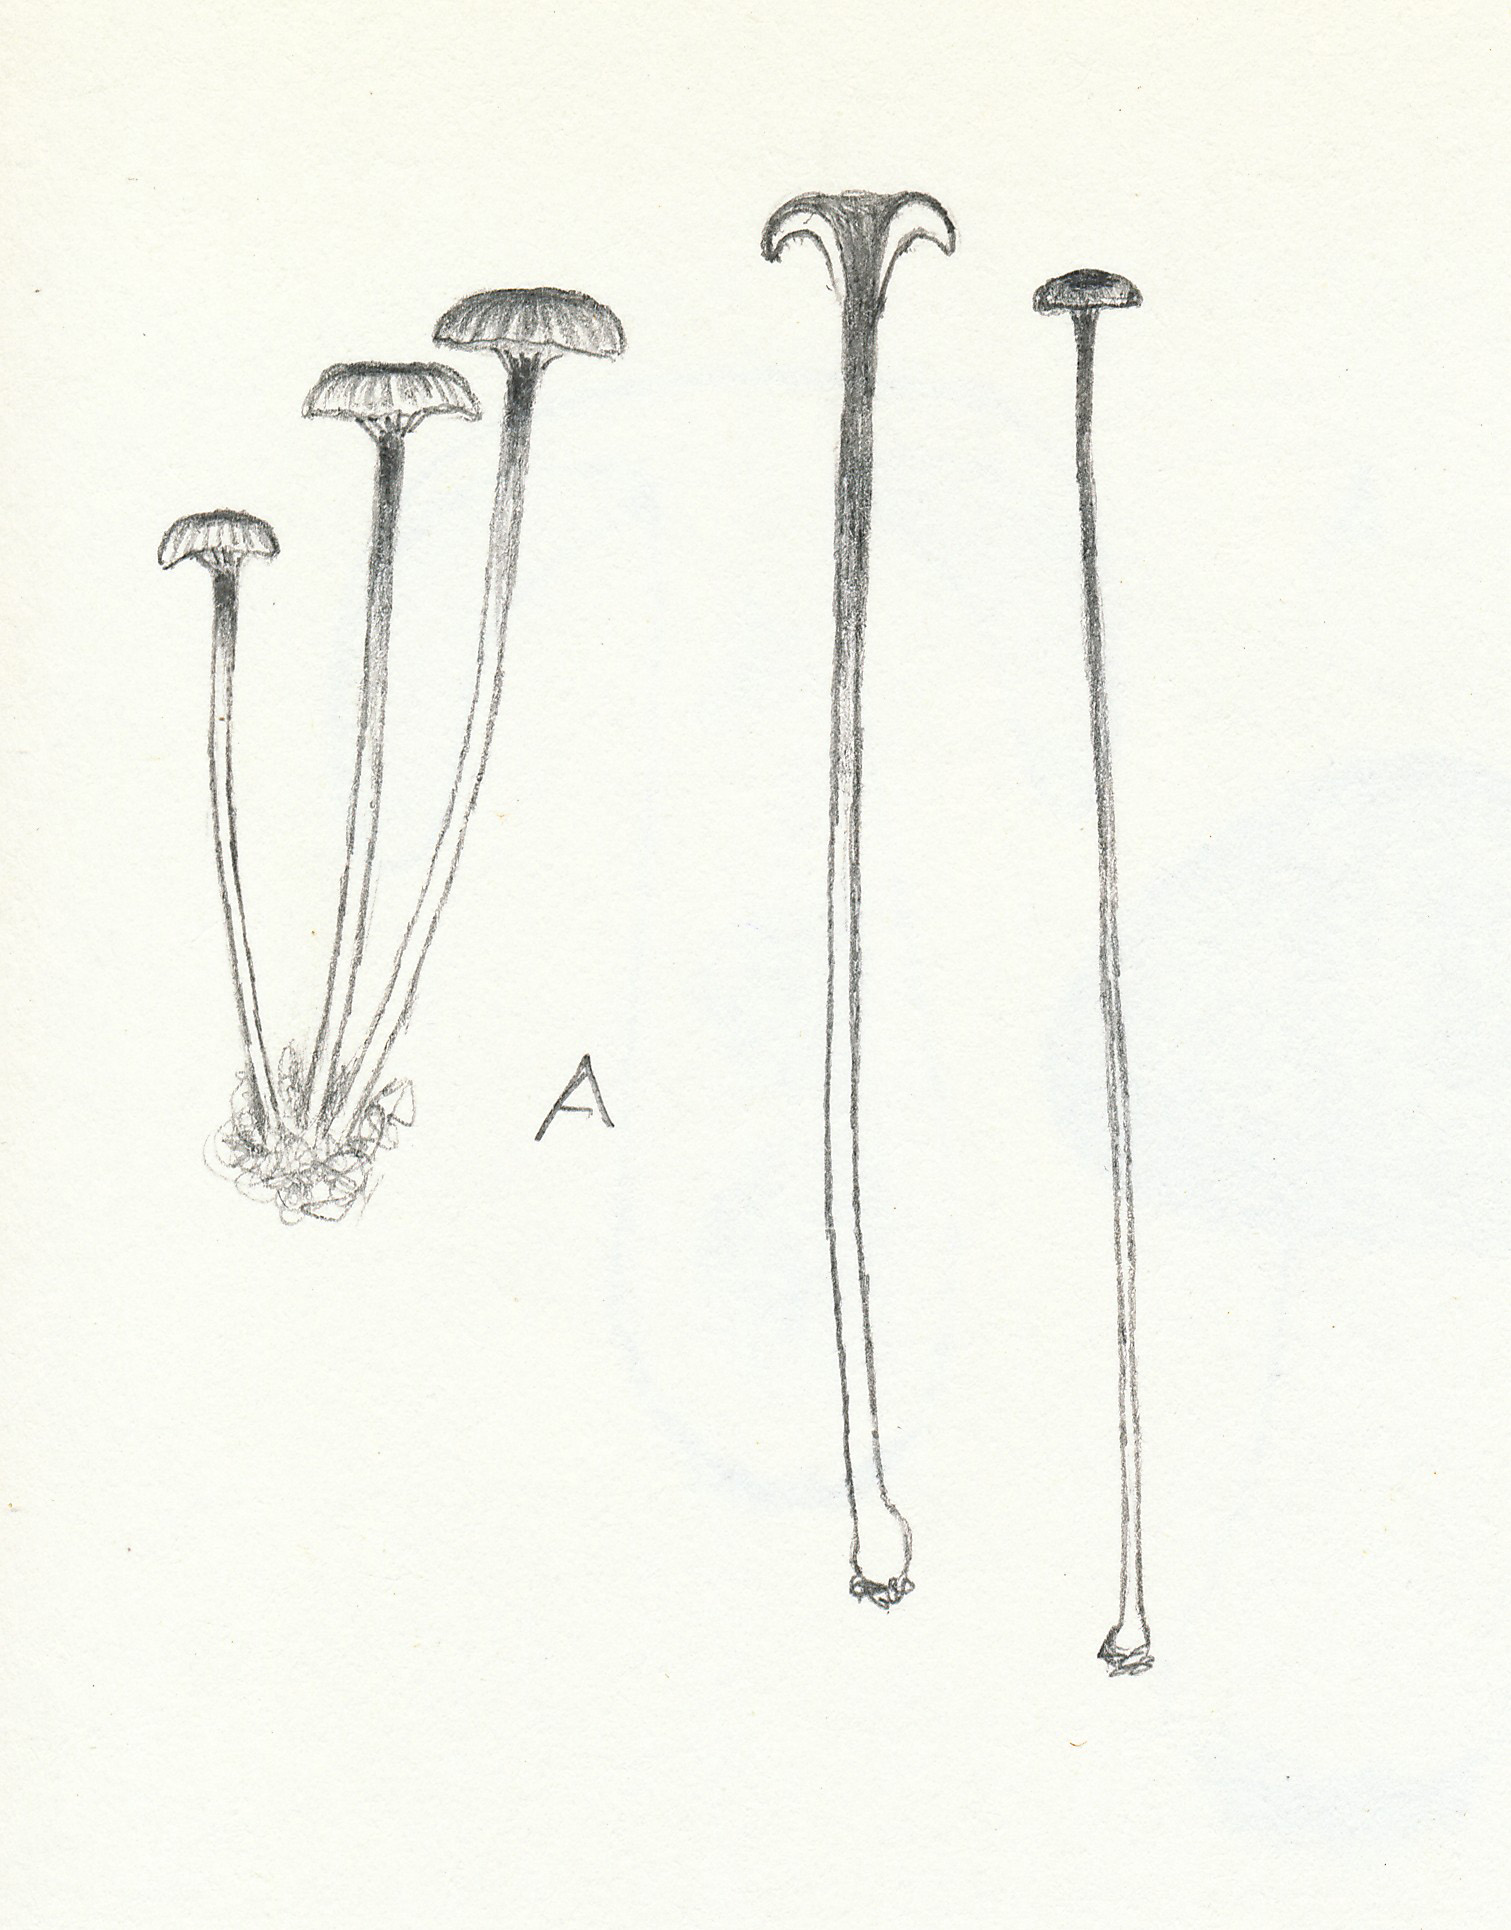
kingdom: Fungi
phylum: Basidiomycota
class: Agaricomycetes
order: Hymenochaetales
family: Rickenellaceae
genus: Rickenella
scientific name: Rickenella swartzii
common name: finstokket mosnavlehat
